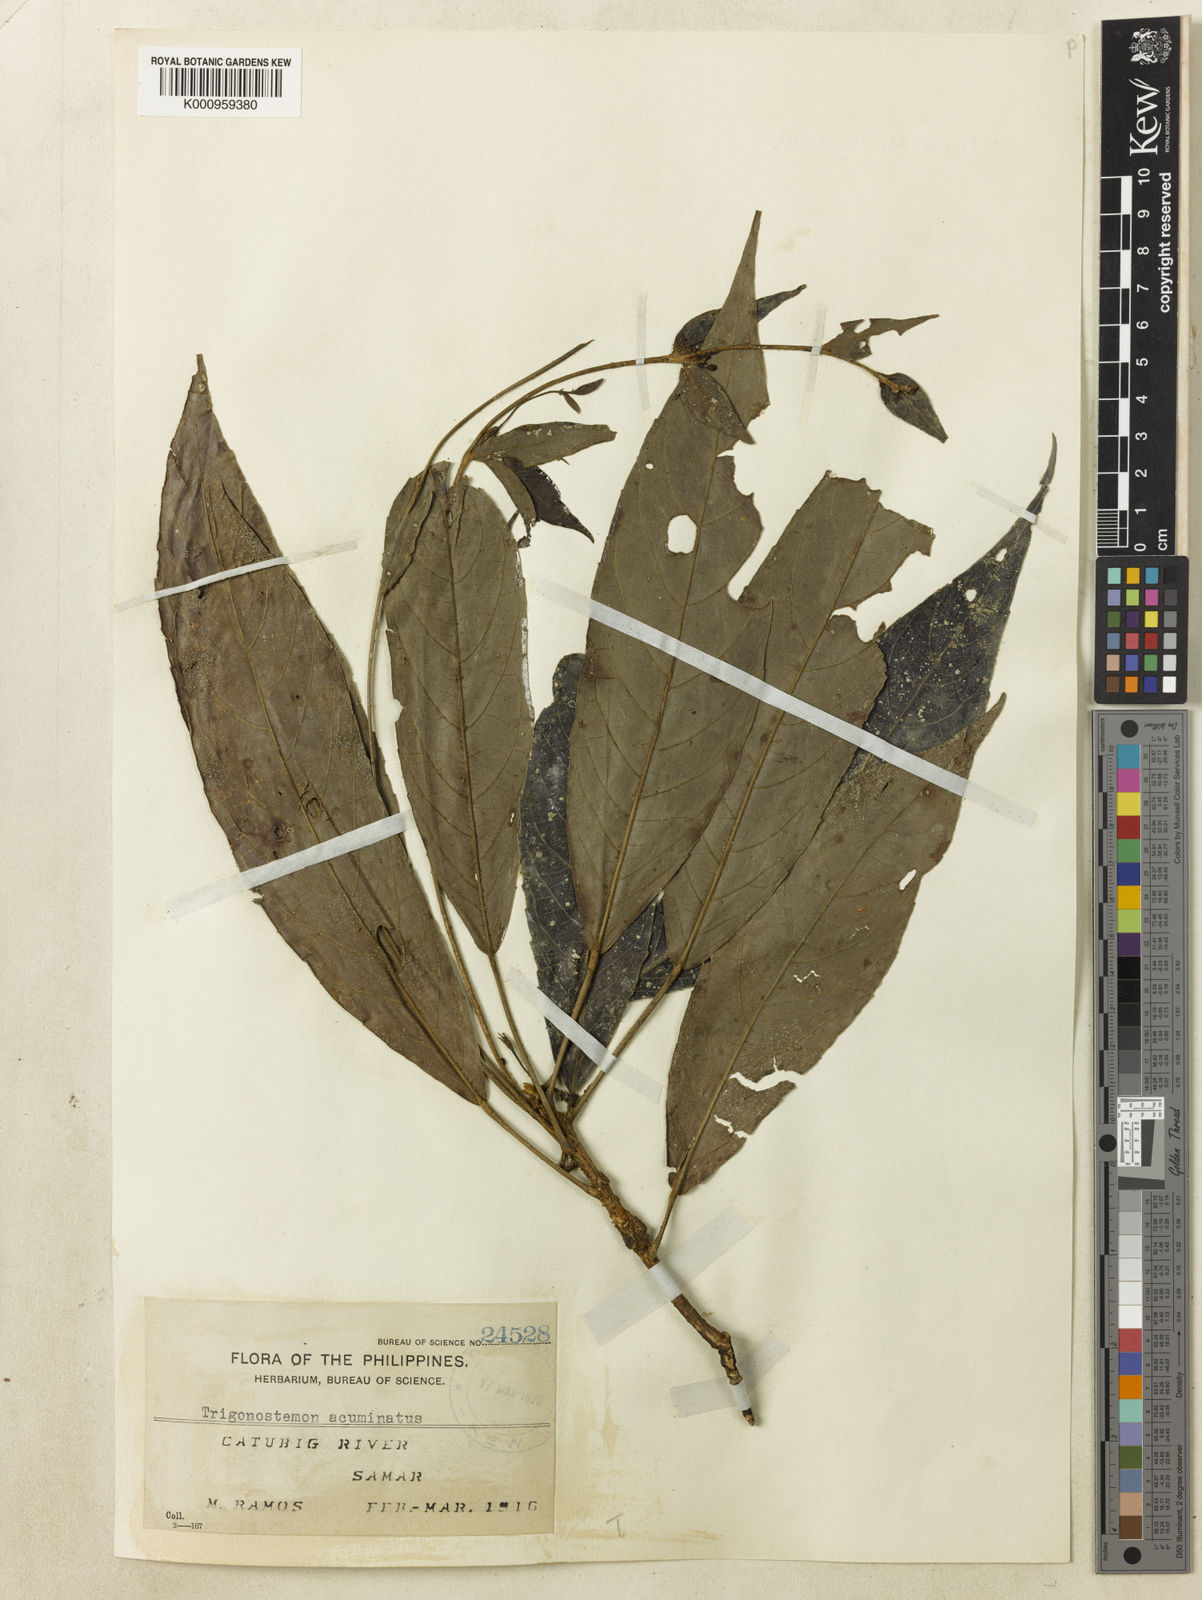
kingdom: Plantae
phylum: Tracheophyta
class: Magnoliopsida
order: Malpighiales
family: Euphorbiaceae
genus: Trigonostemon
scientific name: Trigonostemon villosus
